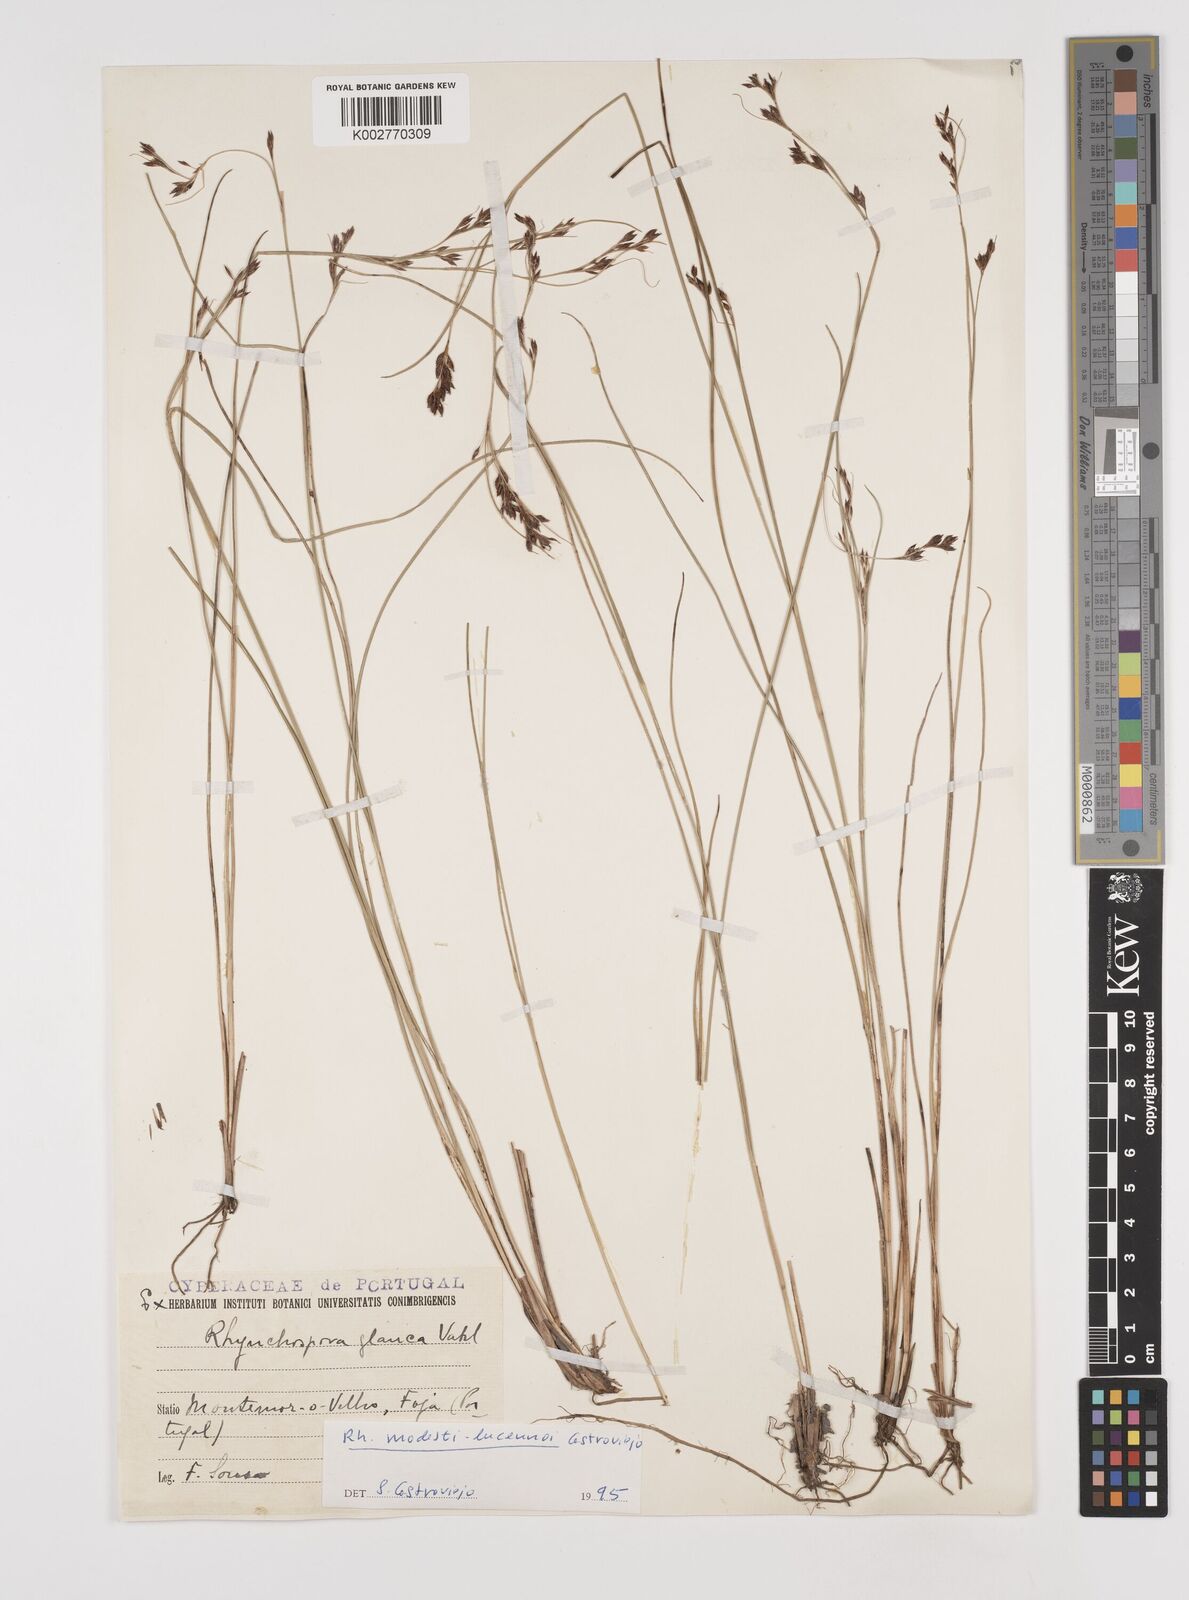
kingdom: Plantae
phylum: Tracheophyta
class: Liliopsida
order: Poales
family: Cyperaceae
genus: Rhynchospora
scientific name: Rhynchospora modesti-lucennoi
